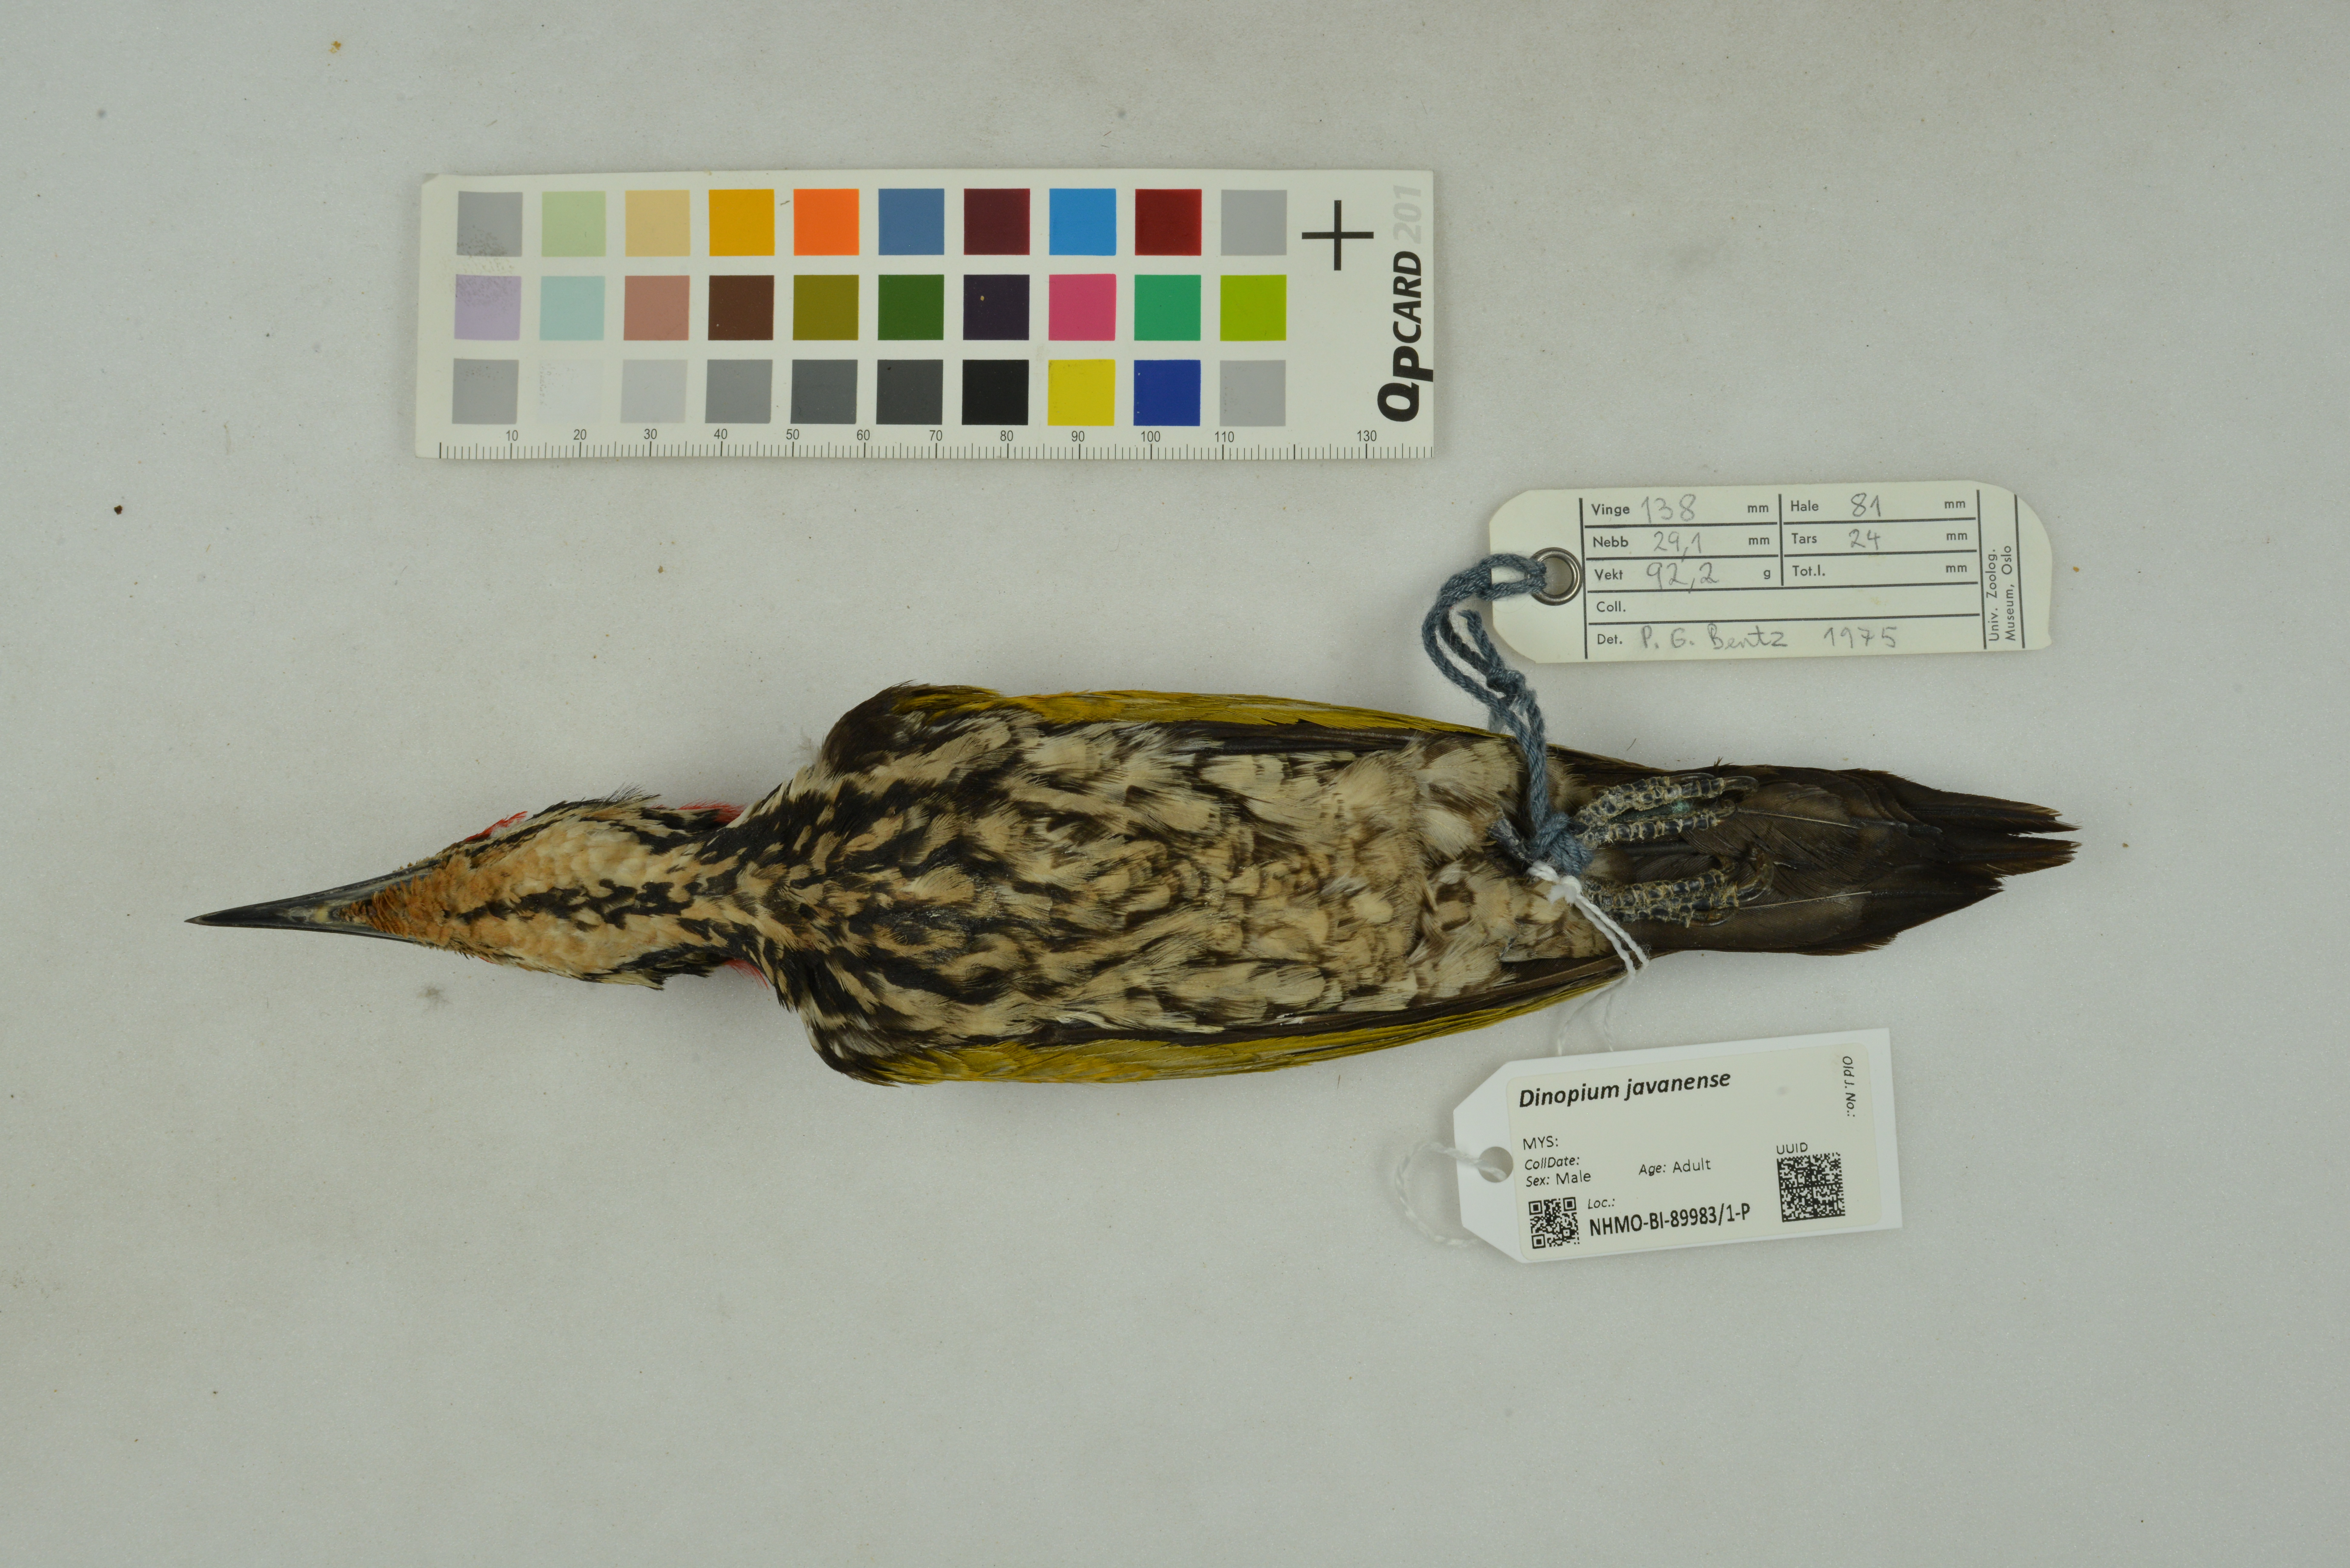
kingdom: Animalia
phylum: Chordata
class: Aves
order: Piciformes
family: Picidae
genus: Dinopium
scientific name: Dinopium javanense
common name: Common flameback
